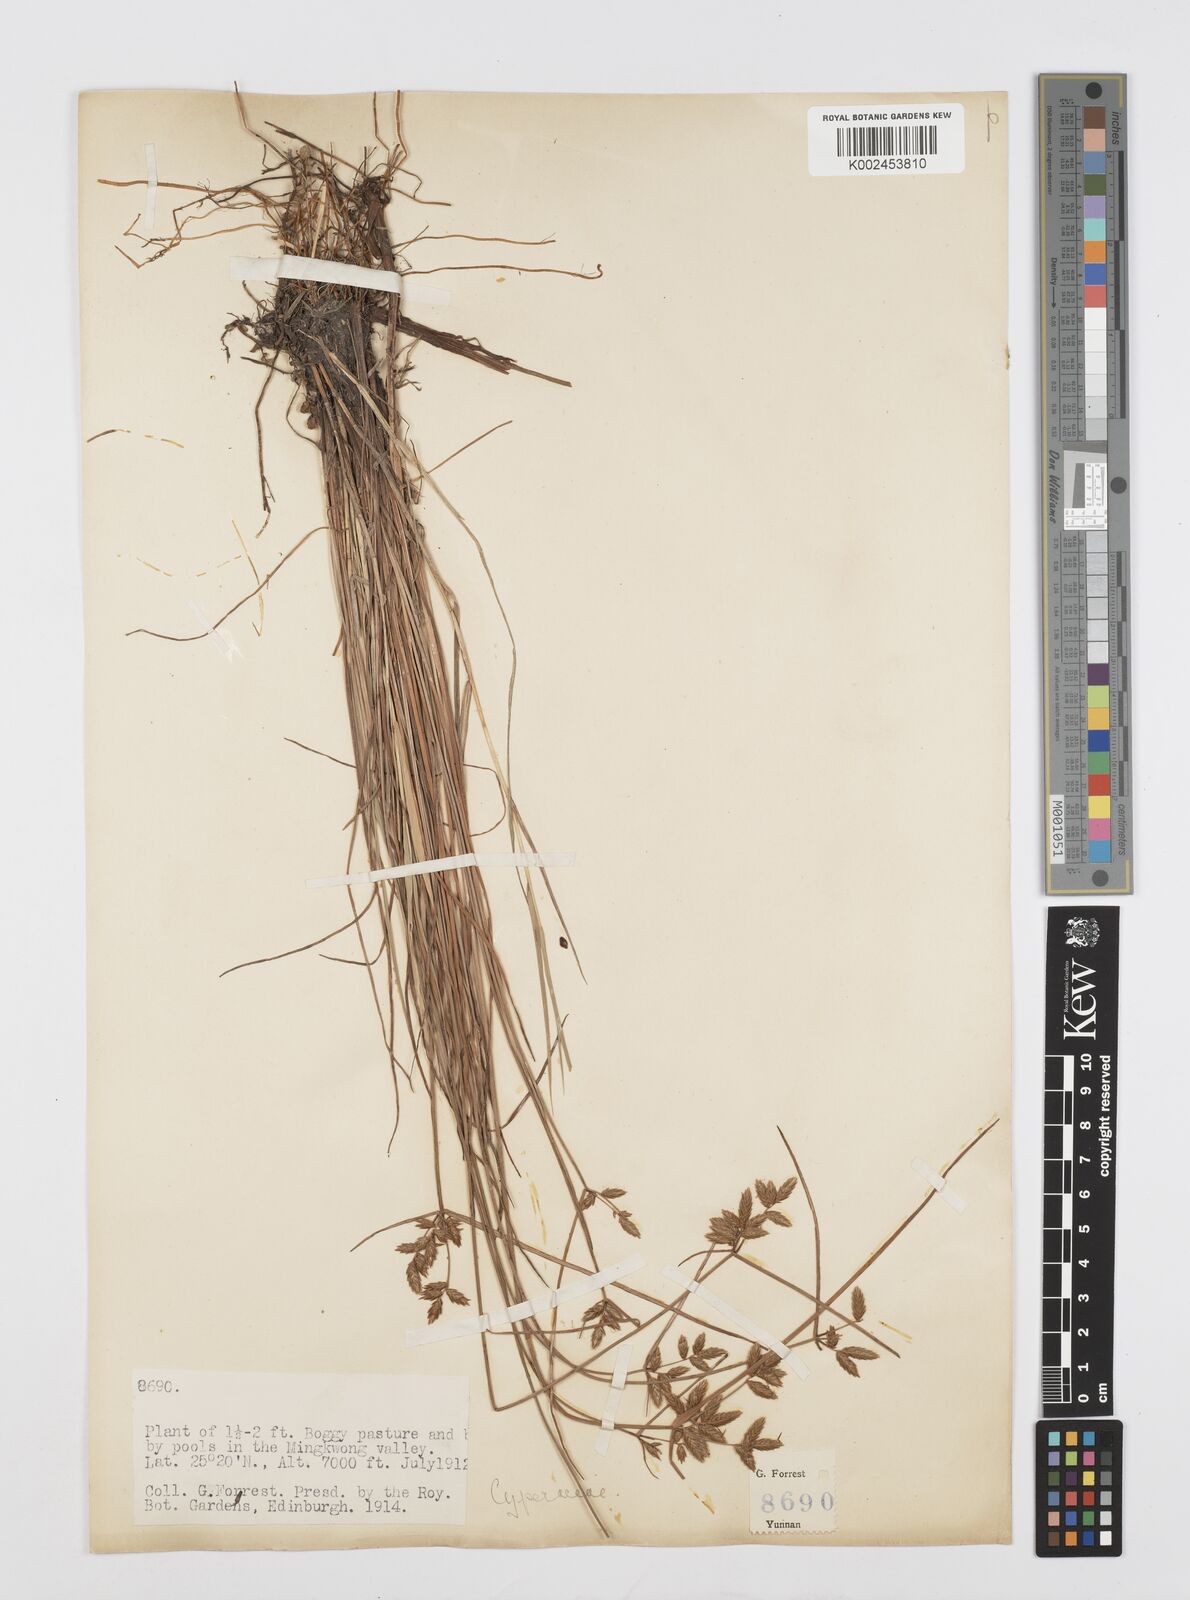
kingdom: Plantae
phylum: Tracheophyta
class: Liliopsida
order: Poales
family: Cyperaceae
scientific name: Cyperaceae
